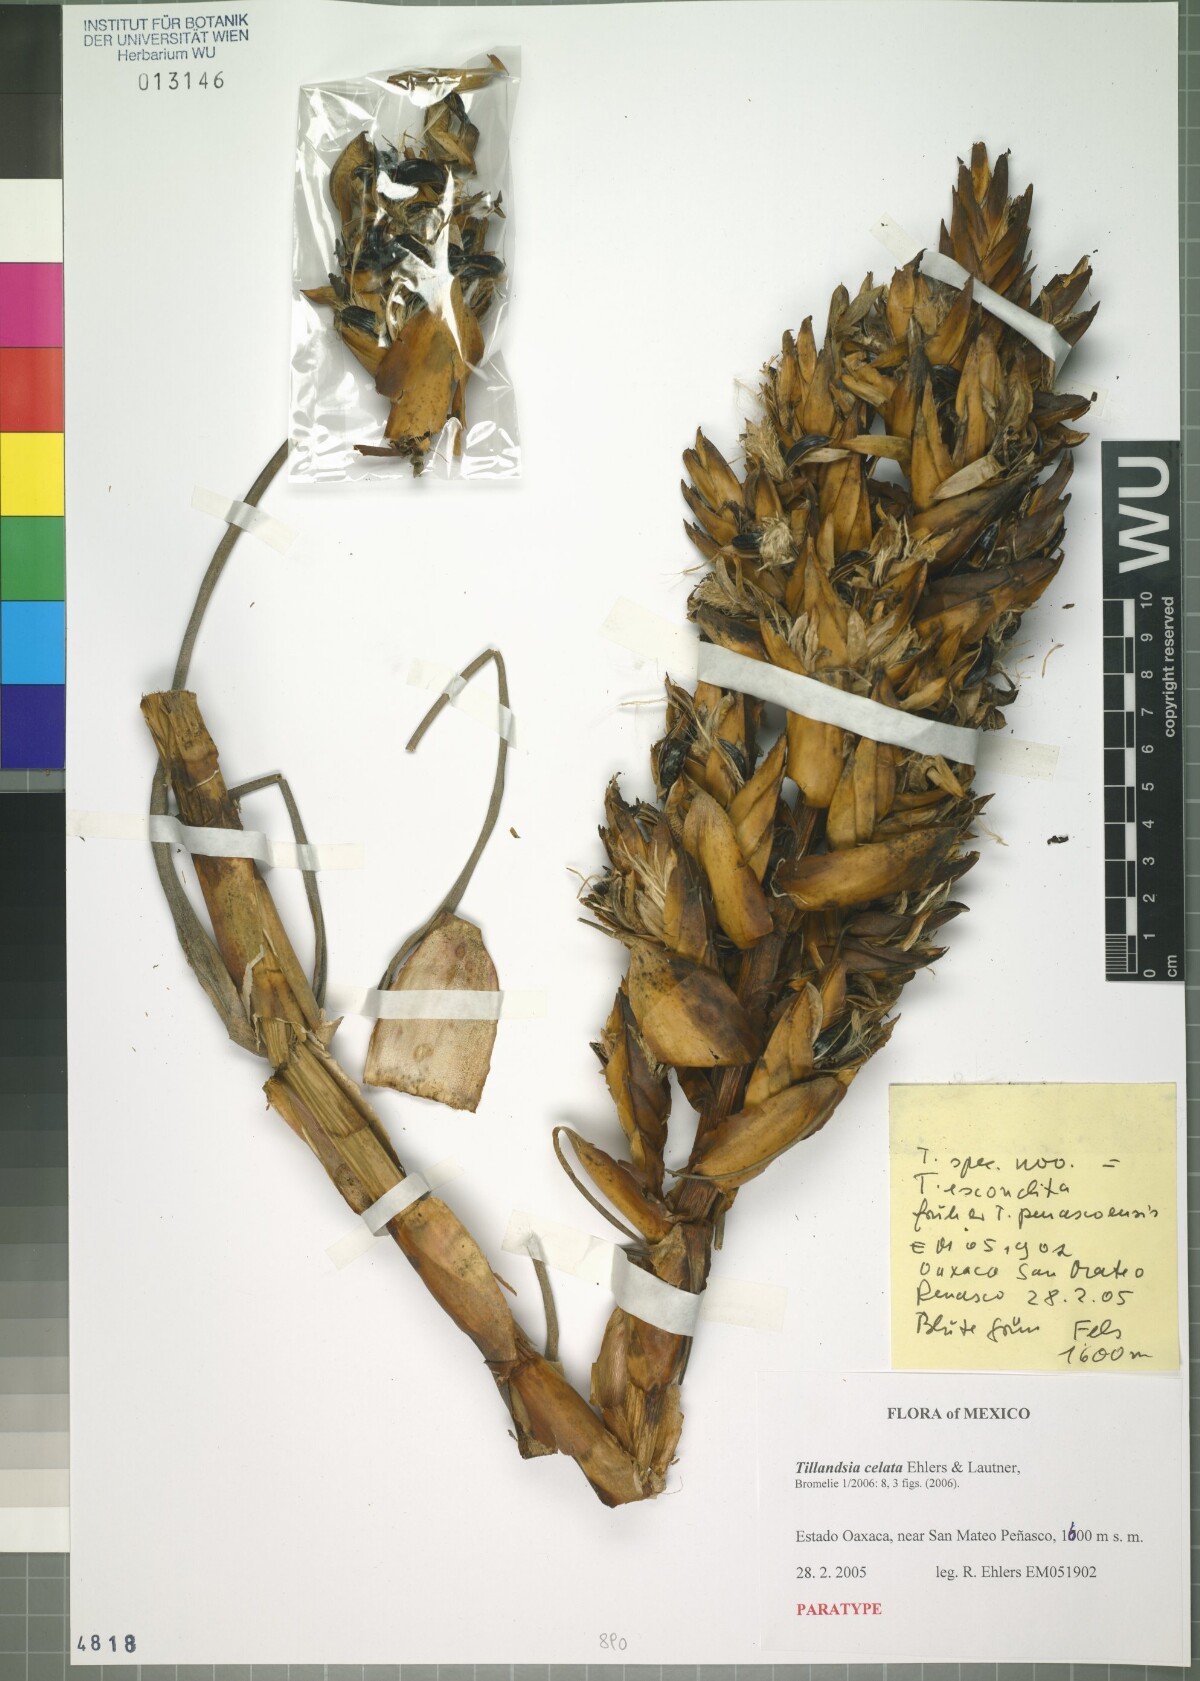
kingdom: Plantae
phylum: Tracheophyta
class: Liliopsida
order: Poales
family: Bromeliaceae
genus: Tillandsia
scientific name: Tillandsia celata
